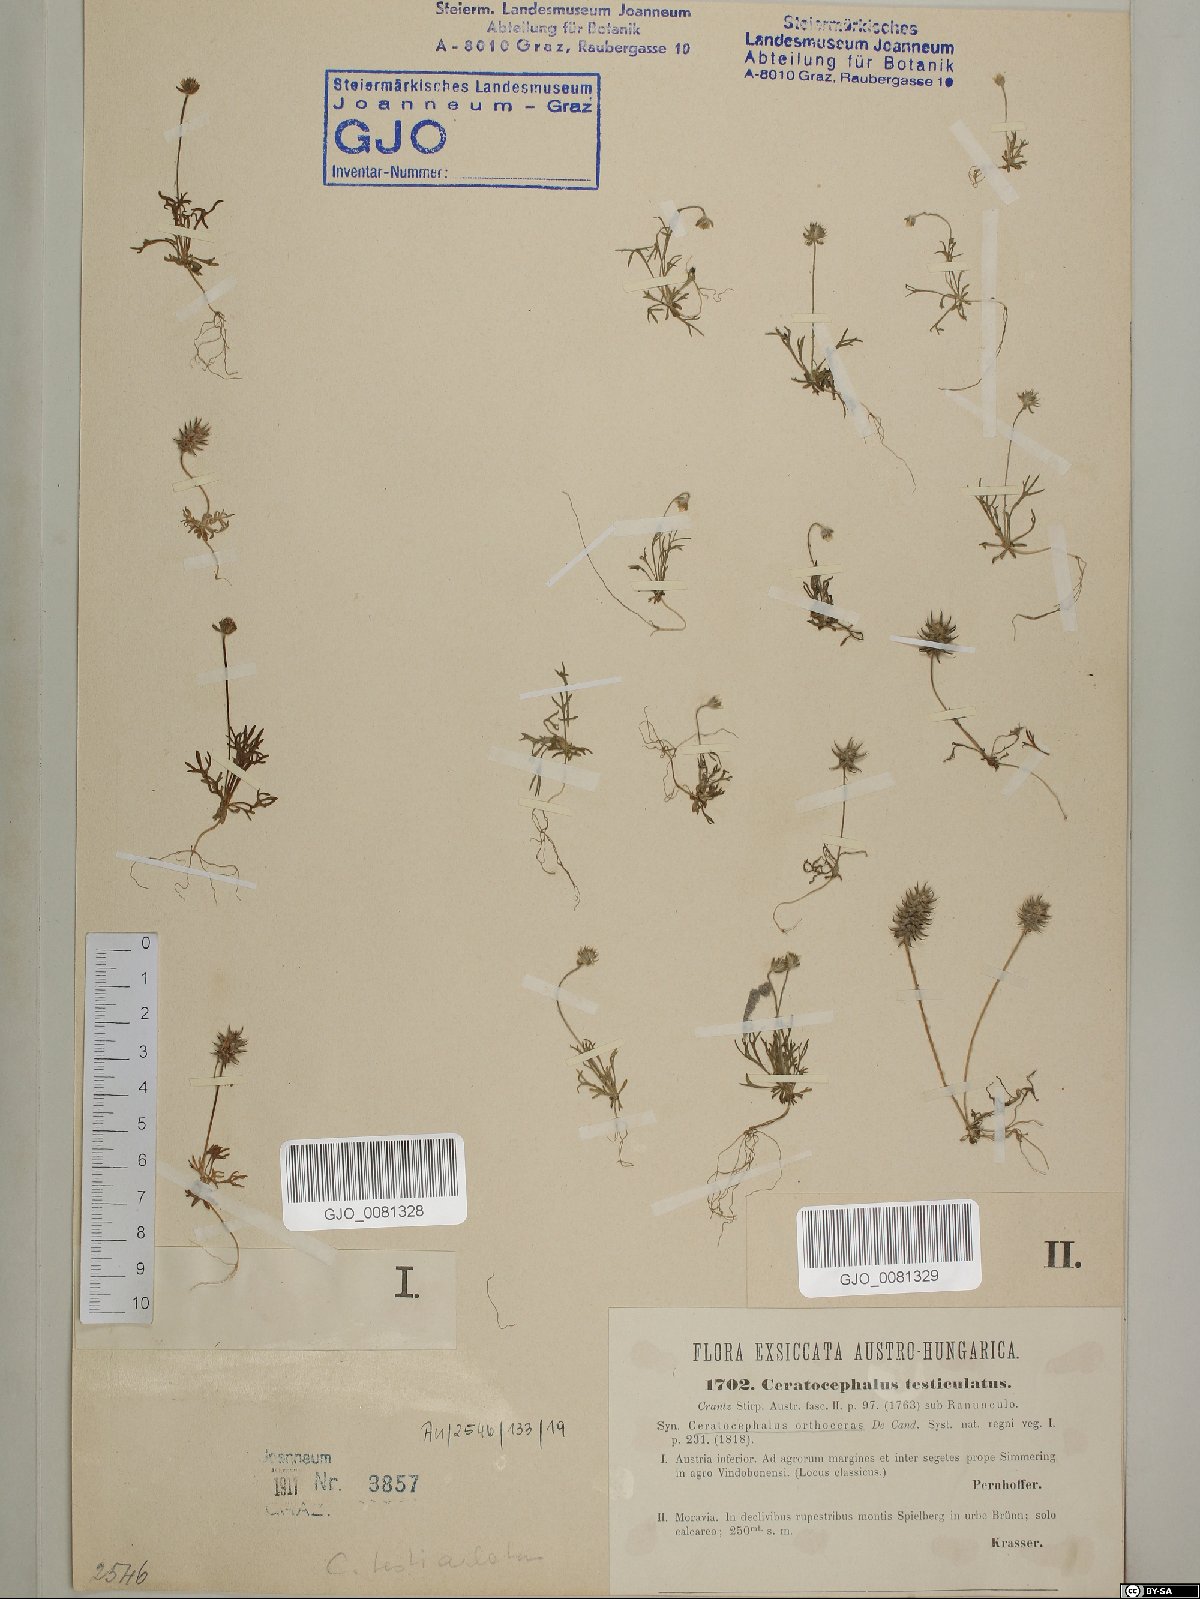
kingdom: Plantae
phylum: Tracheophyta
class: Magnoliopsida
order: Ranunculales
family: Ranunculaceae
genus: Ceratocephala
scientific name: Ceratocephala orthoceras
